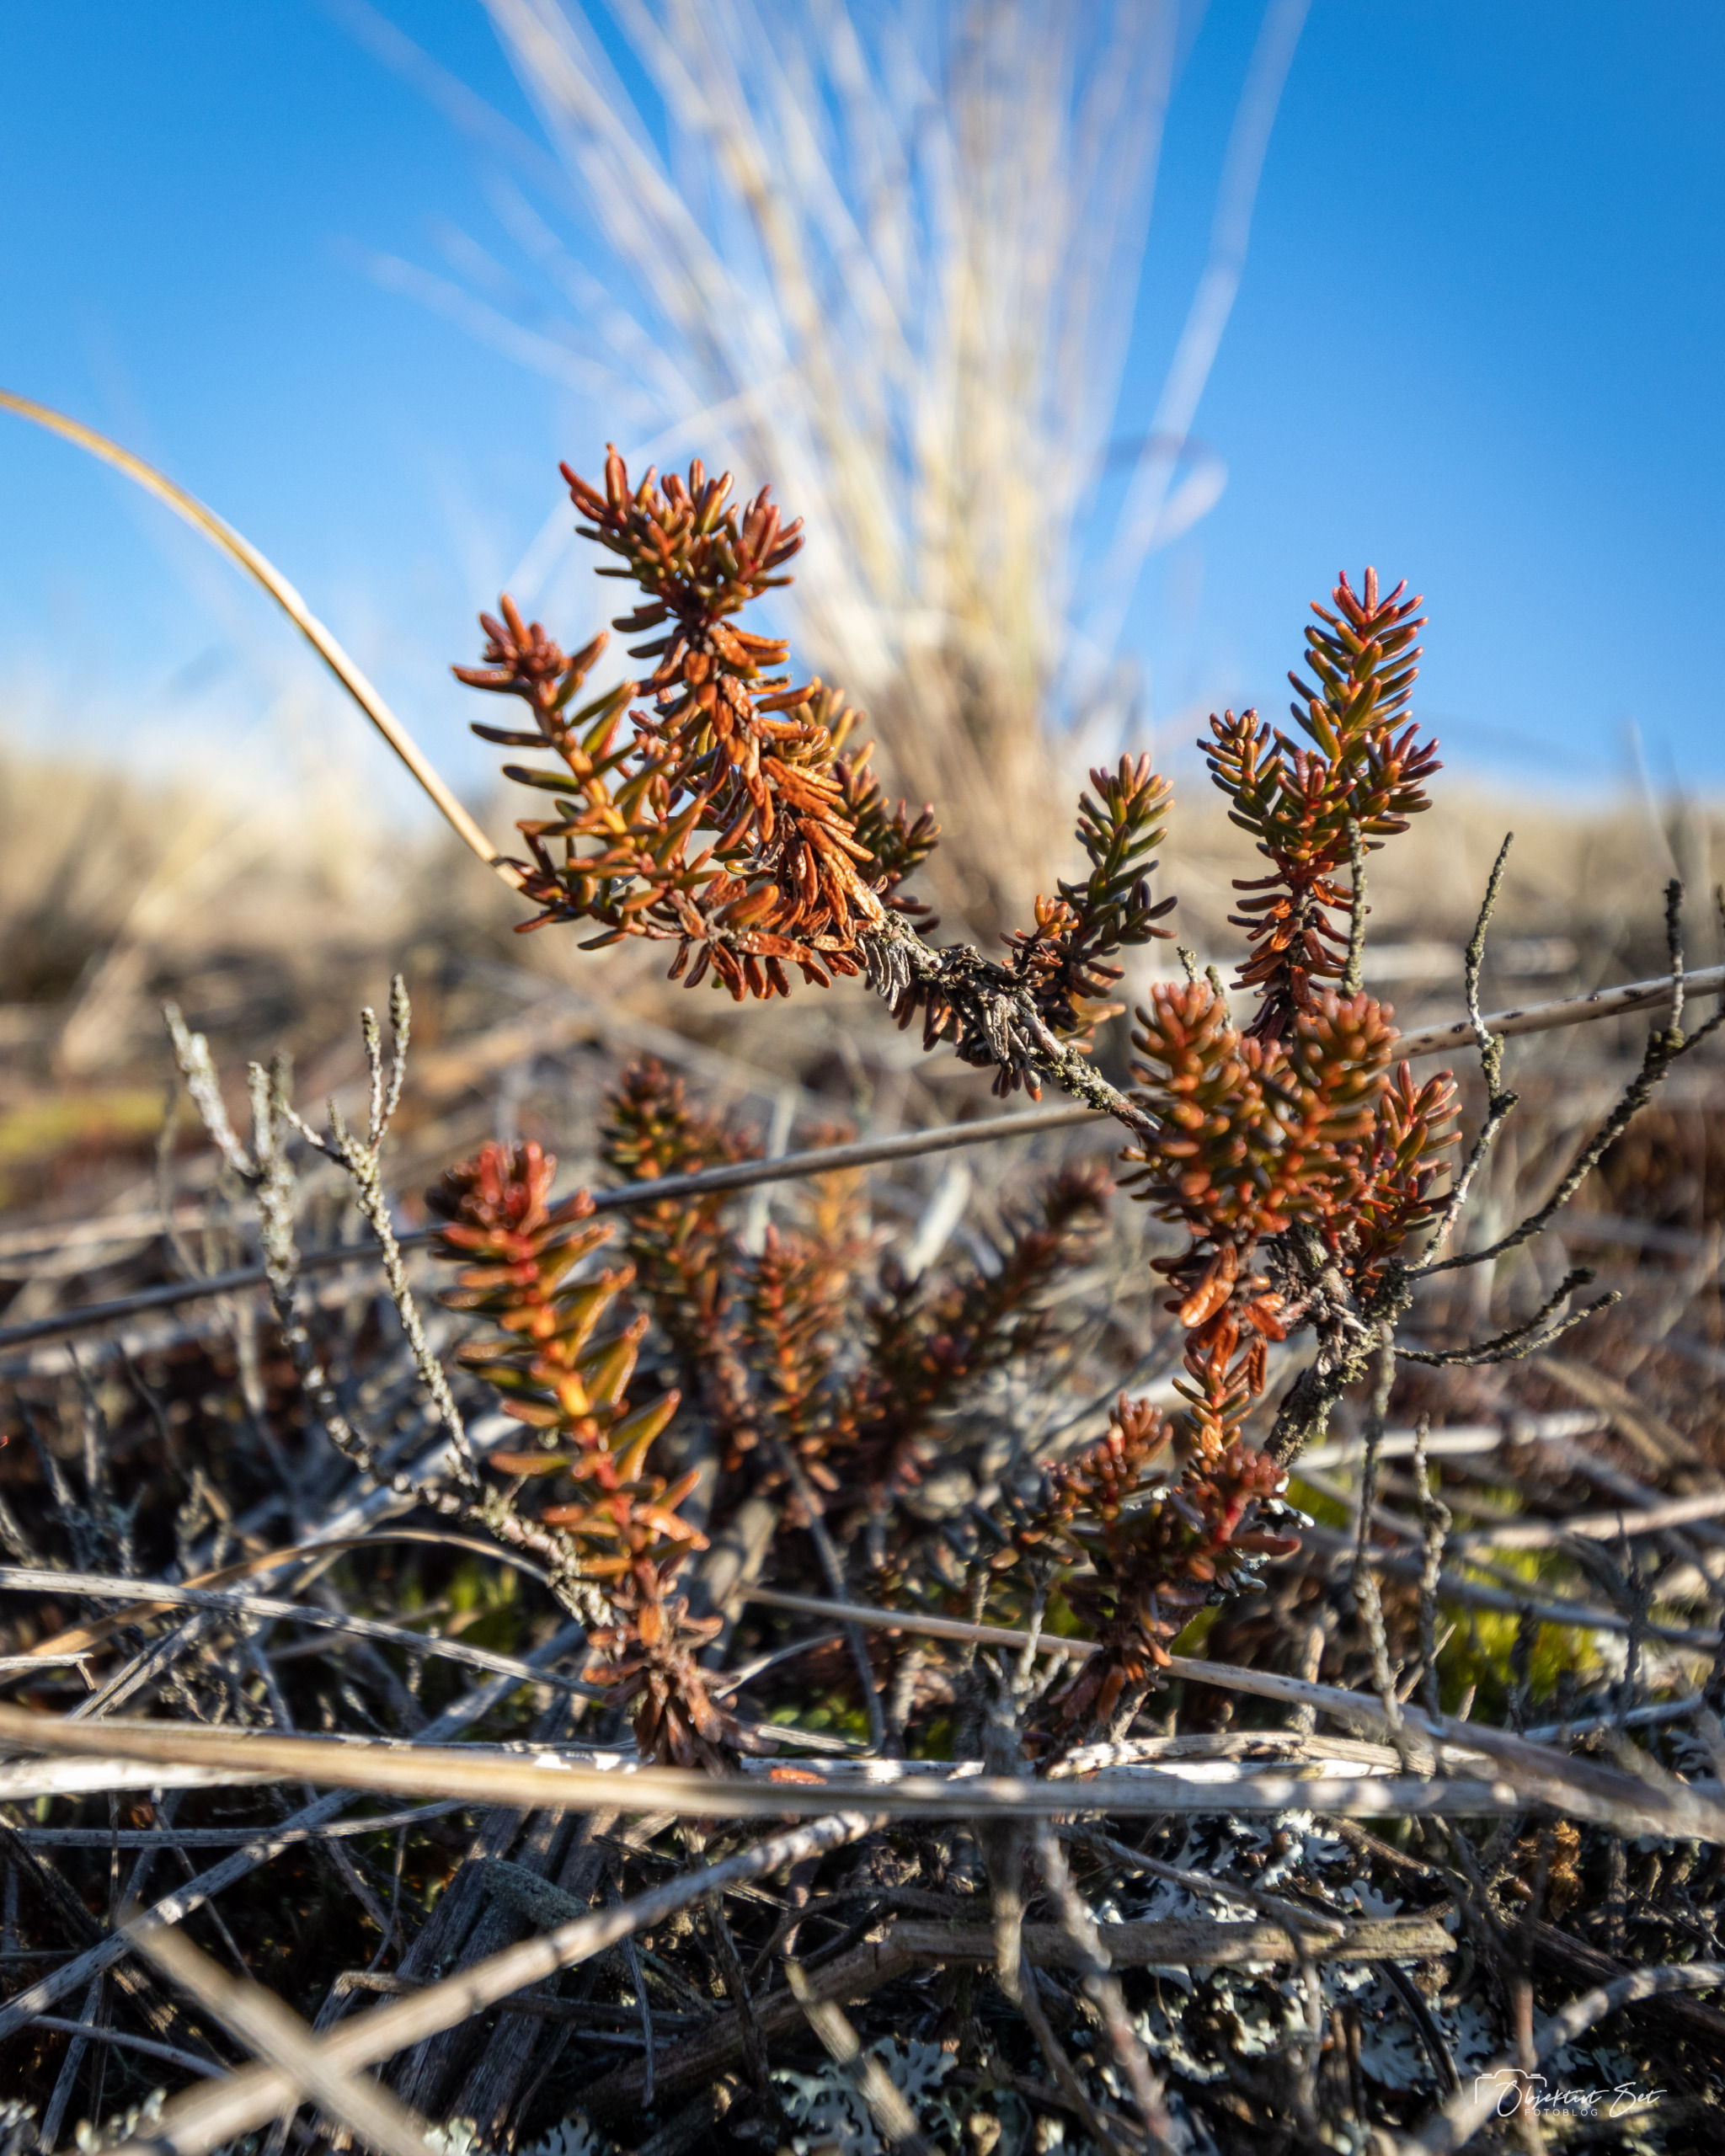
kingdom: Plantae
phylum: Tracheophyta
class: Magnoliopsida
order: Ericales
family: Ericaceae
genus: Empetrum
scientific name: Empetrum nigrum
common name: Revling
